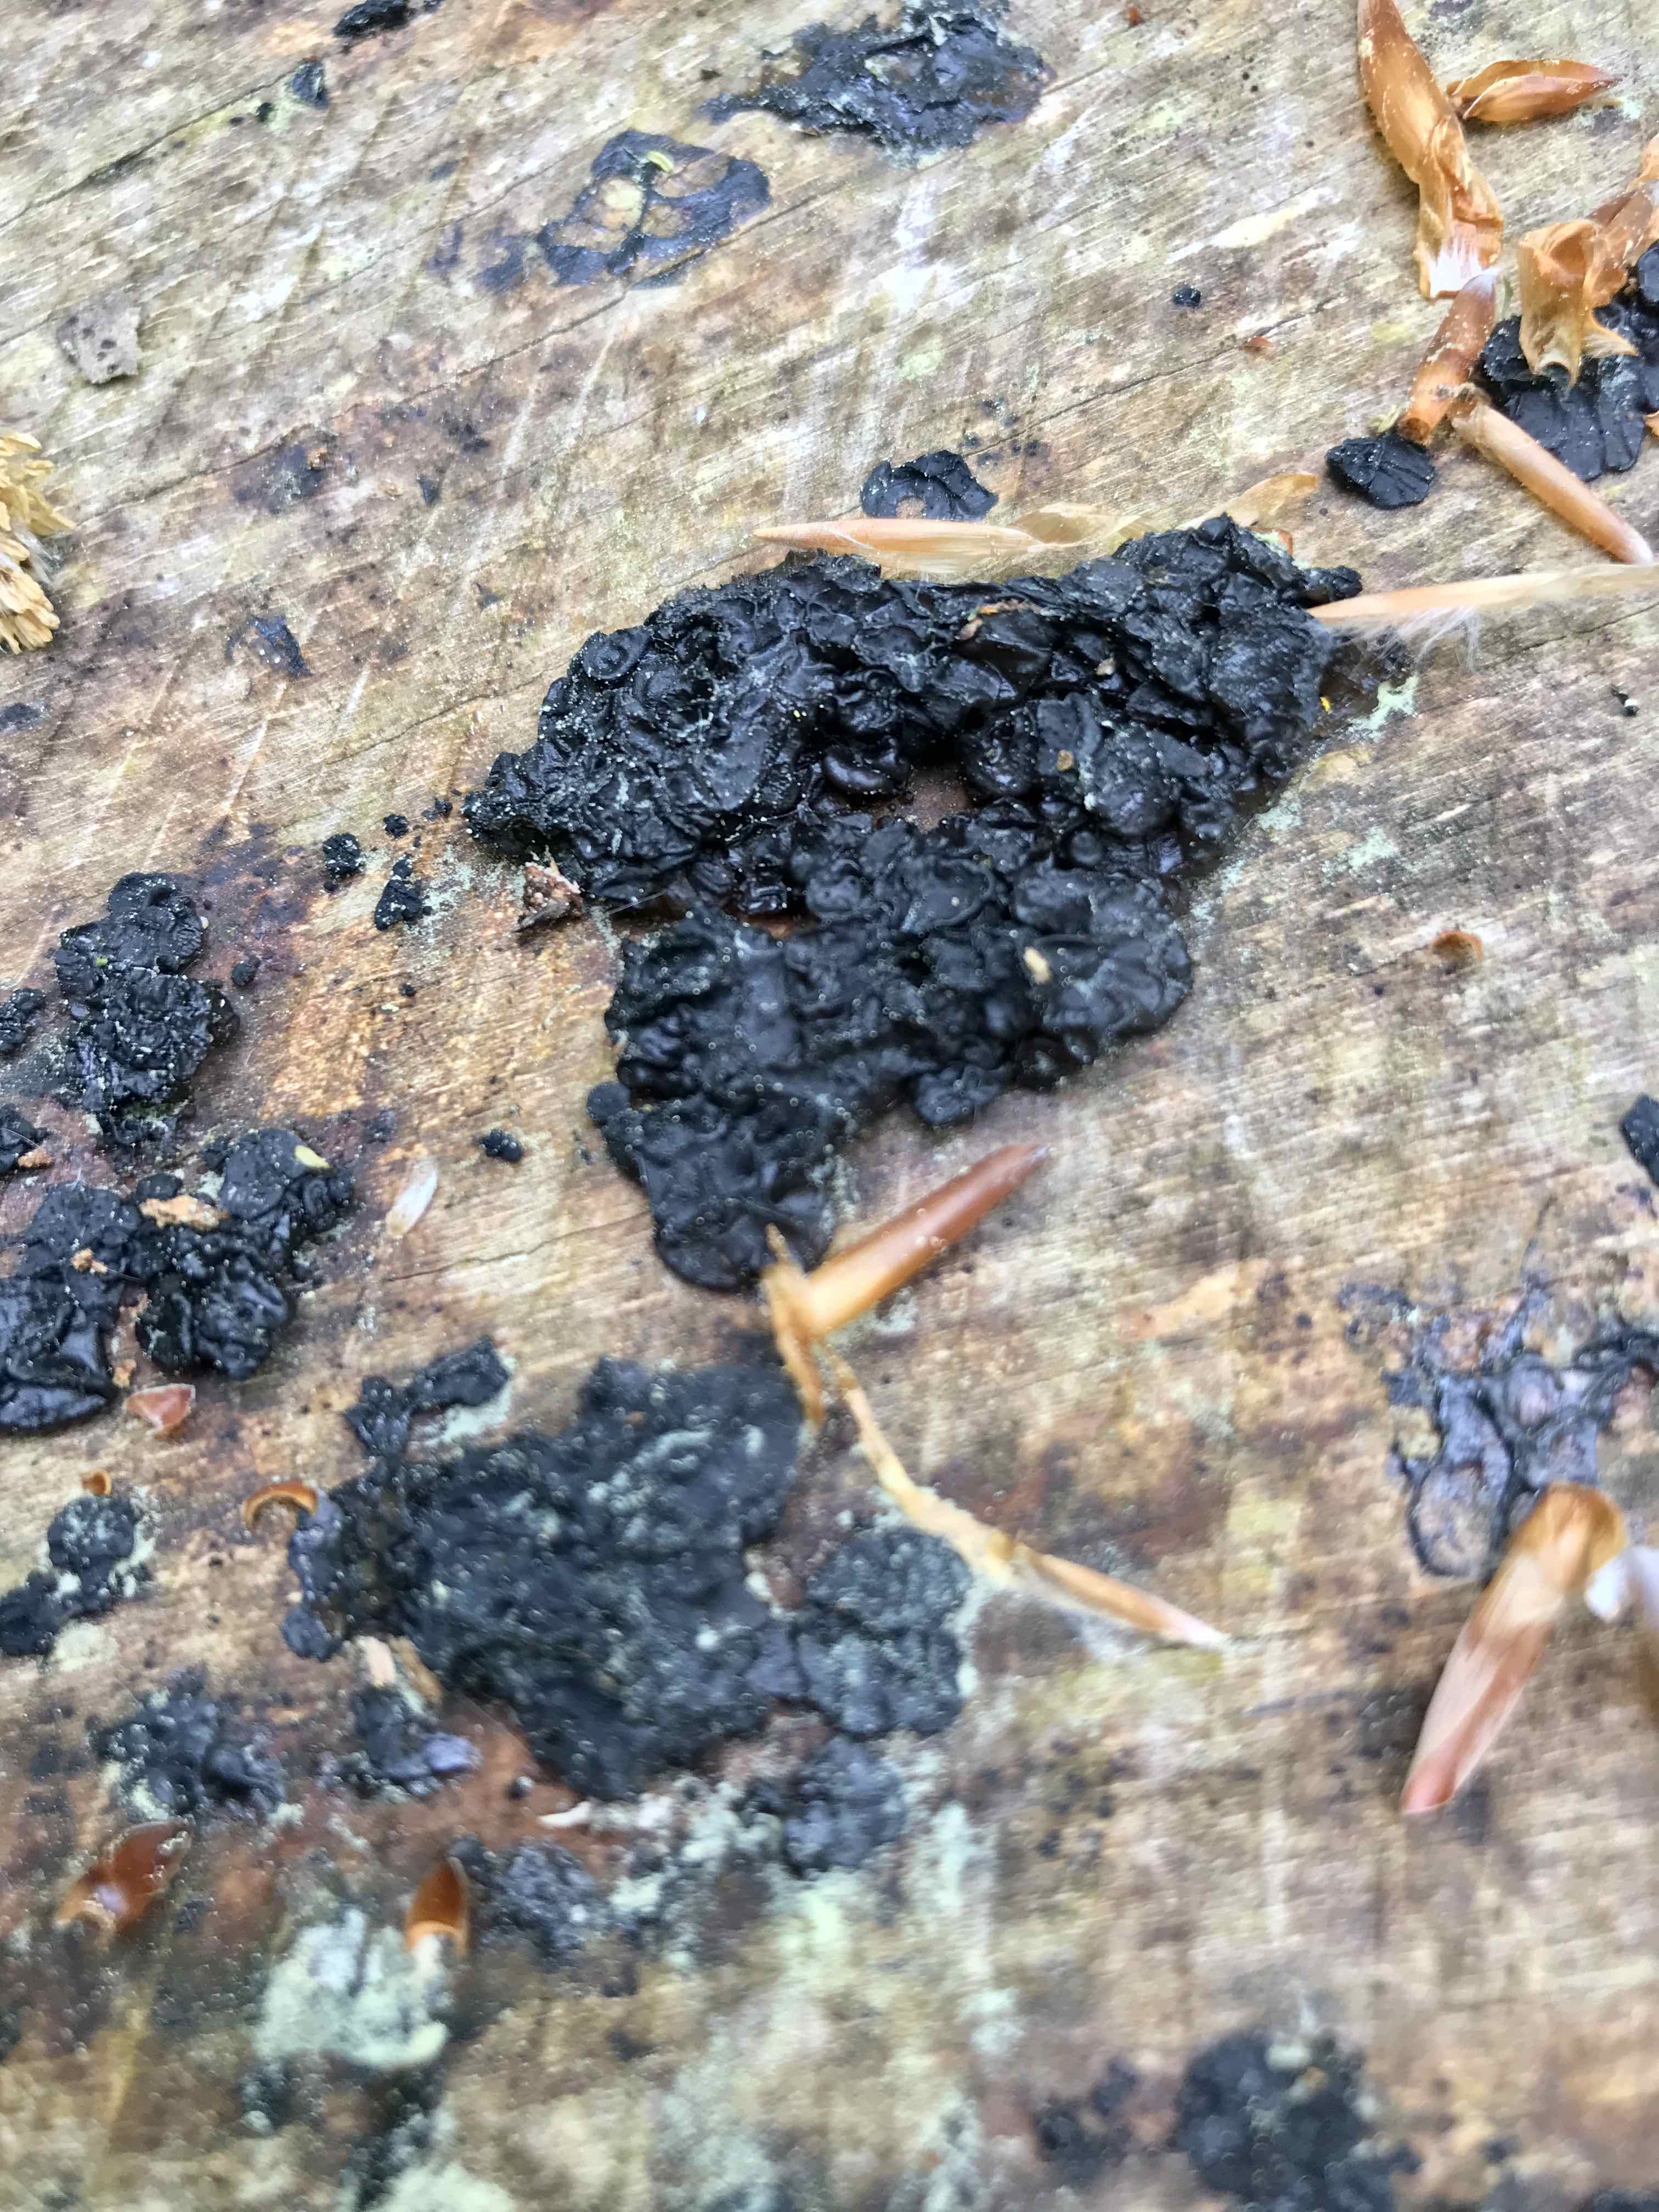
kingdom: Fungi
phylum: Basidiomycota
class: Agaricomycetes
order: Auriculariales
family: Auriculariaceae
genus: Exidia
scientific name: Exidia nigricans
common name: almindelig bævretop
